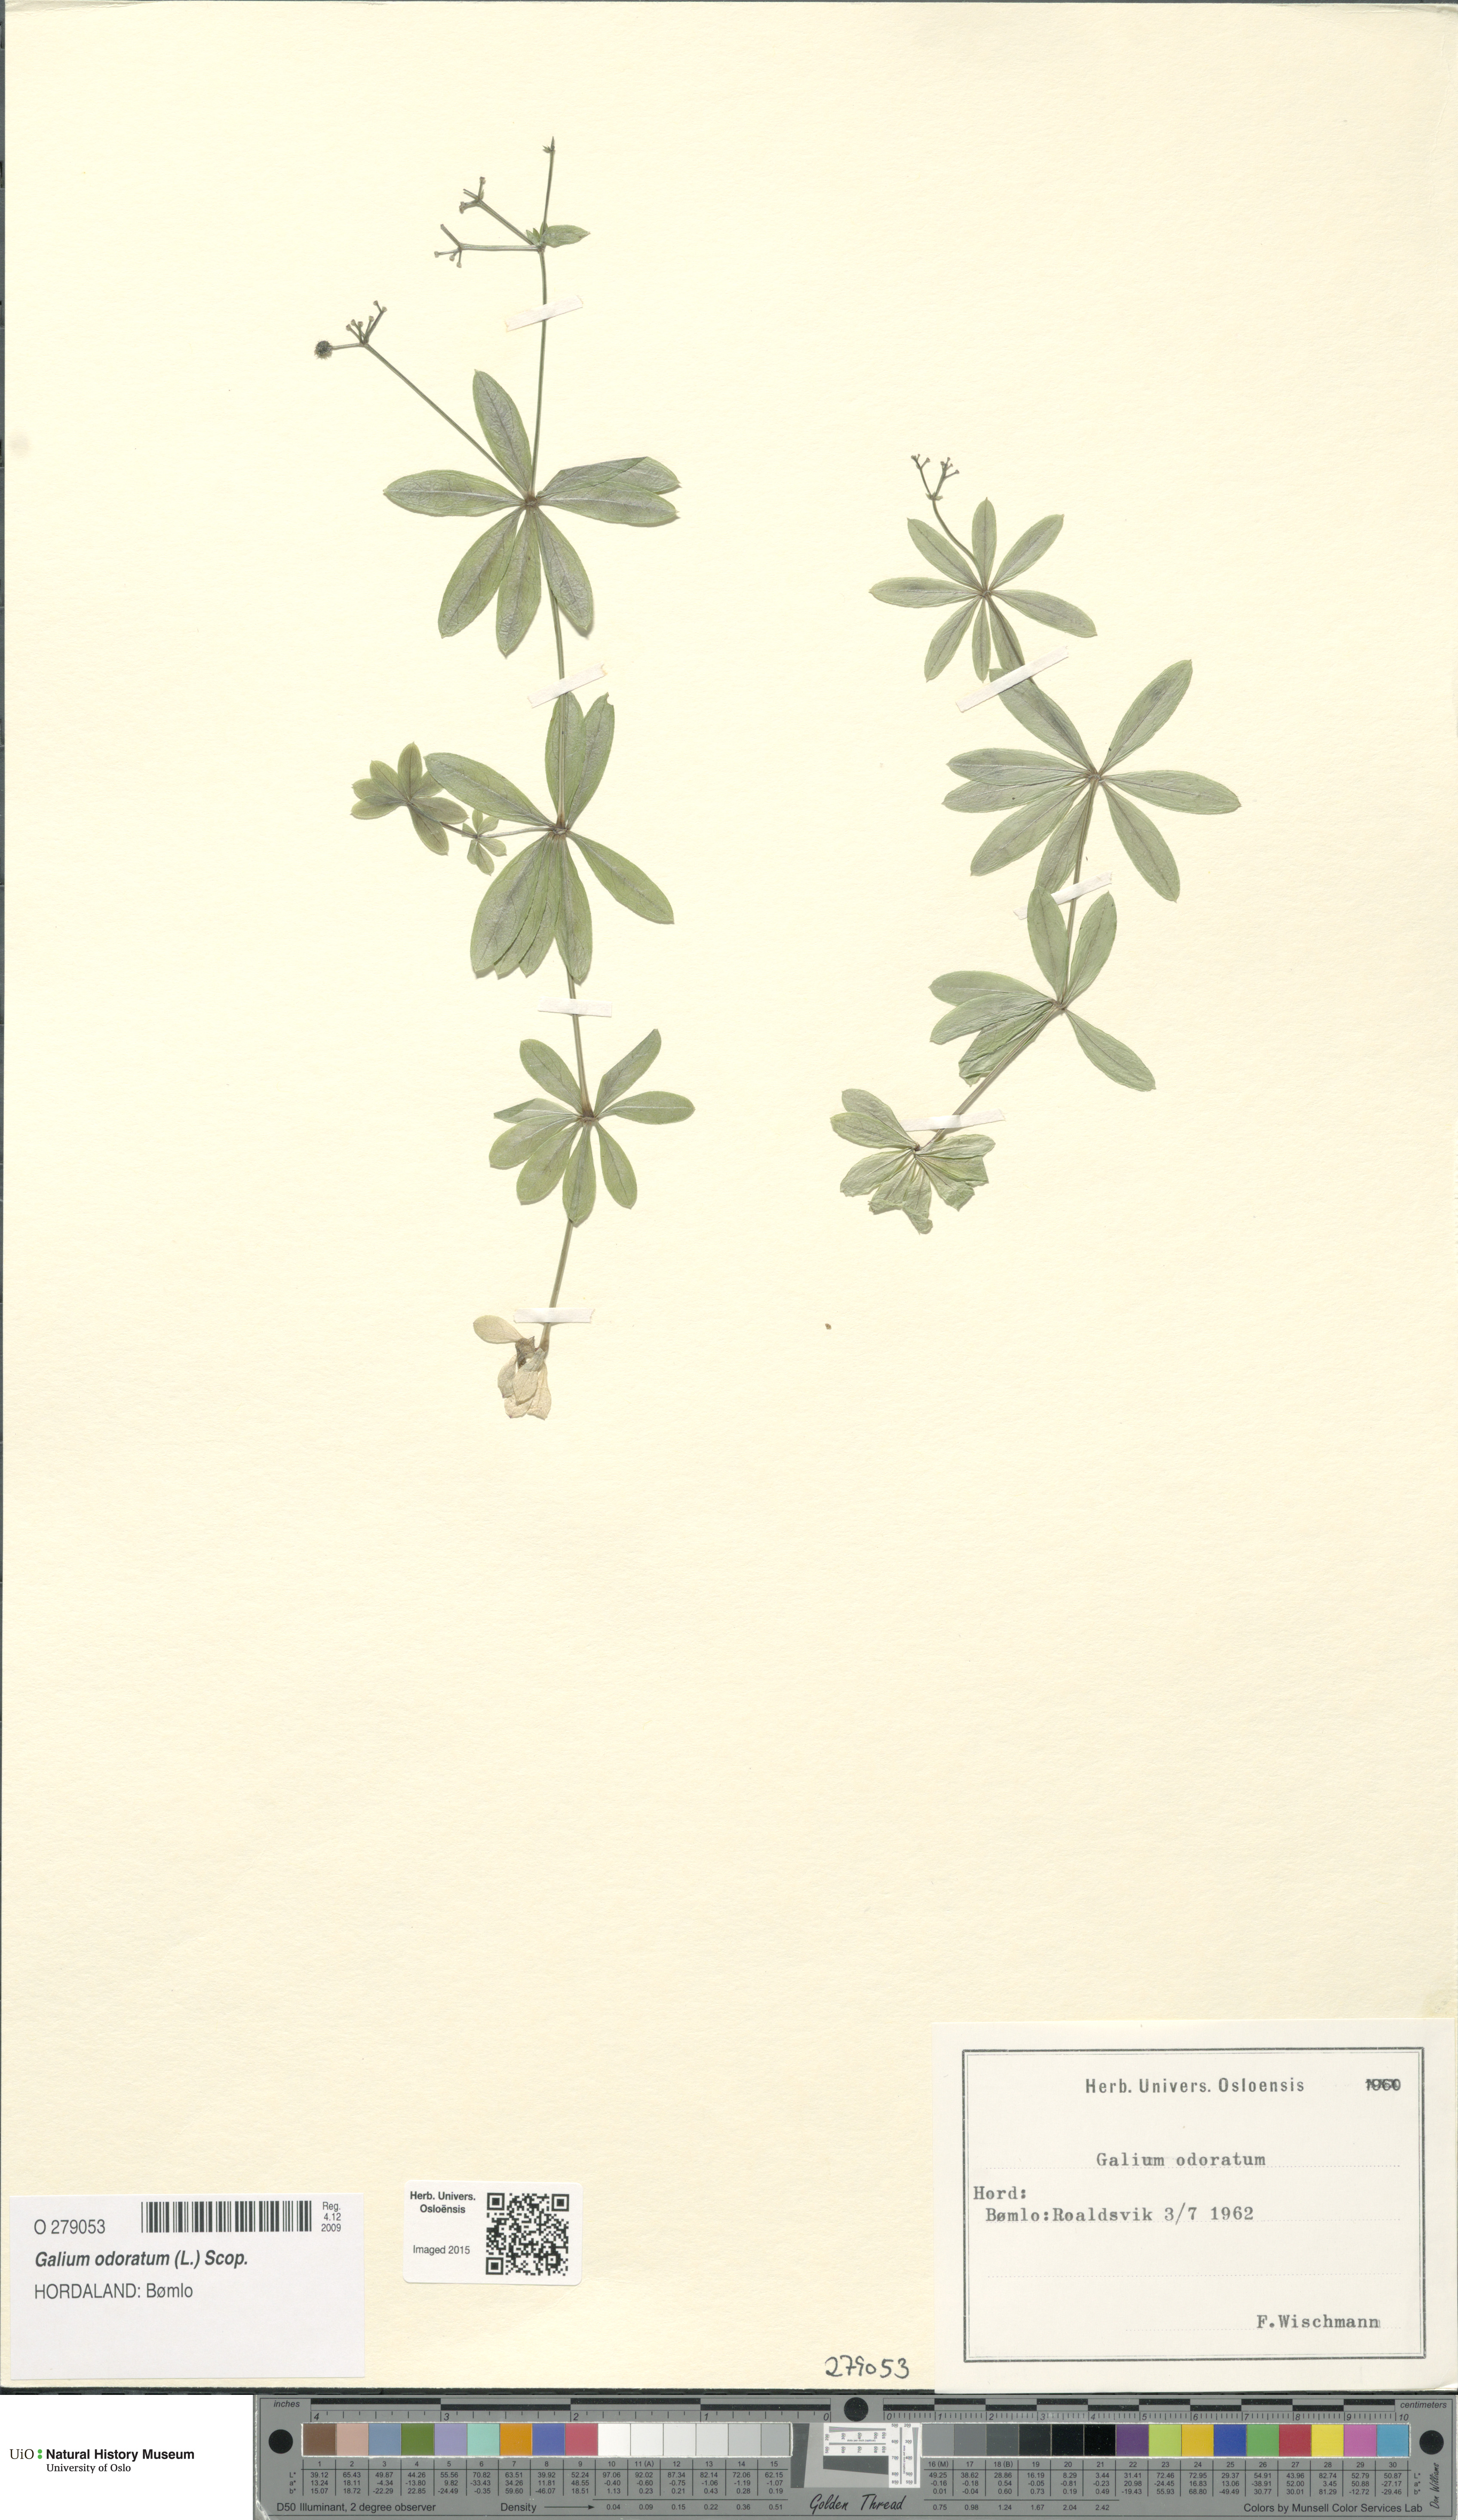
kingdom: Plantae
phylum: Tracheophyta
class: Magnoliopsida
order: Gentianales
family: Rubiaceae
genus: Galium
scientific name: Galium odoratum
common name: Sweet woodruff
